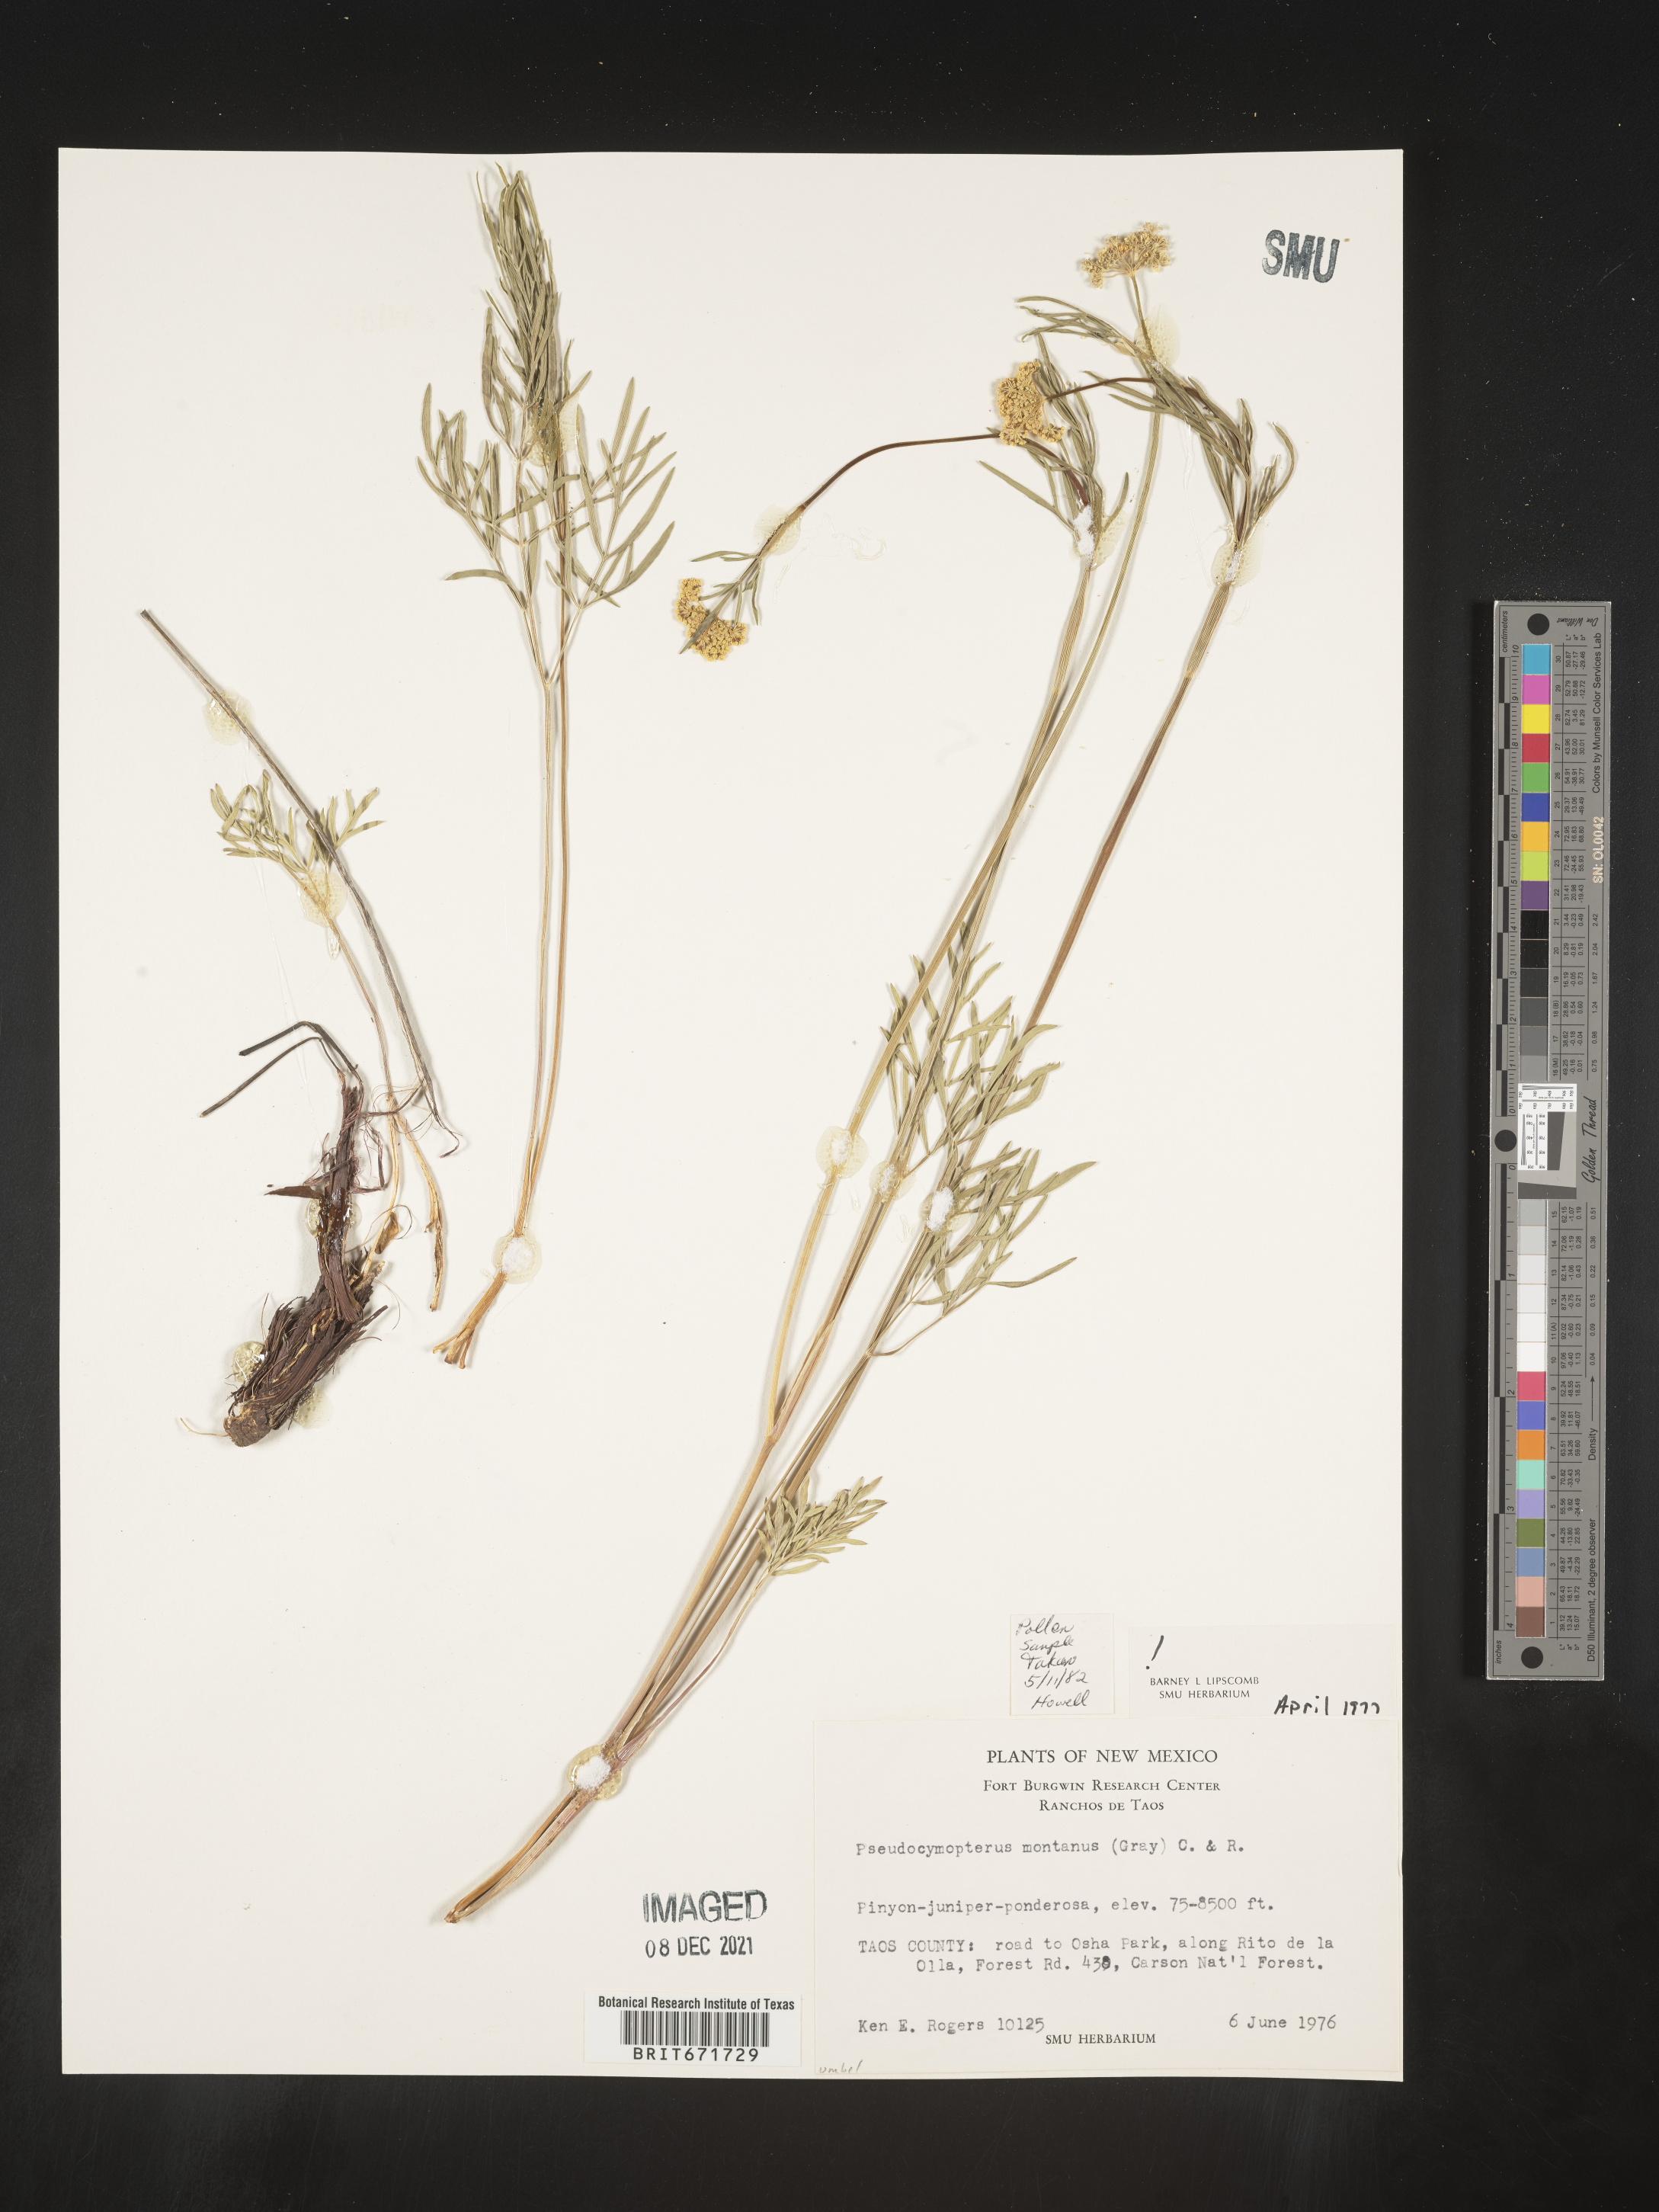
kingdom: Plantae
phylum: Tracheophyta
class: Magnoliopsida
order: Apiales
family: Apiaceae
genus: Cymopterus
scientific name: Cymopterus lemmonii
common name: Lemmon's spring-parsley
